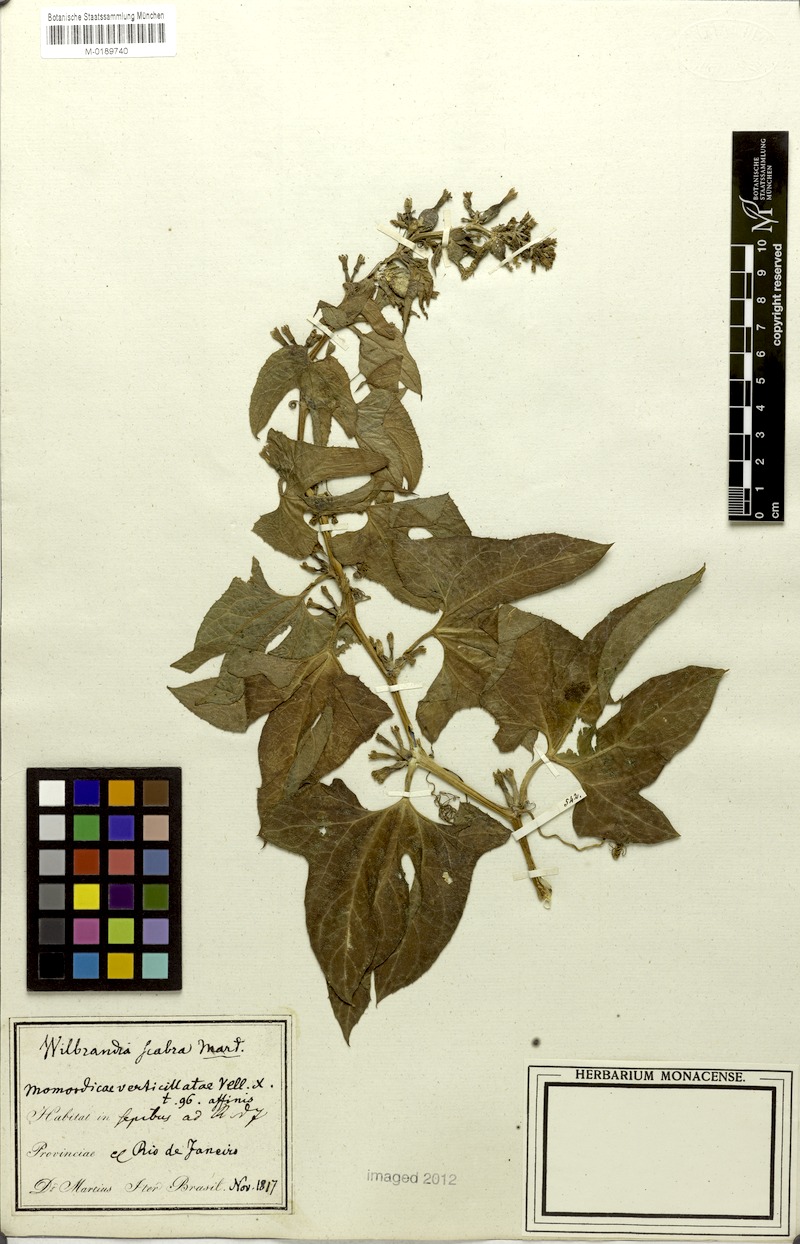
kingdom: Plantae
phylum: Tracheophyta
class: Magnoliopsida
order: Cucurbitales
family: Cucurbitaceae
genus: Wilbrandia
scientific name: Wilbrandia verticillata
